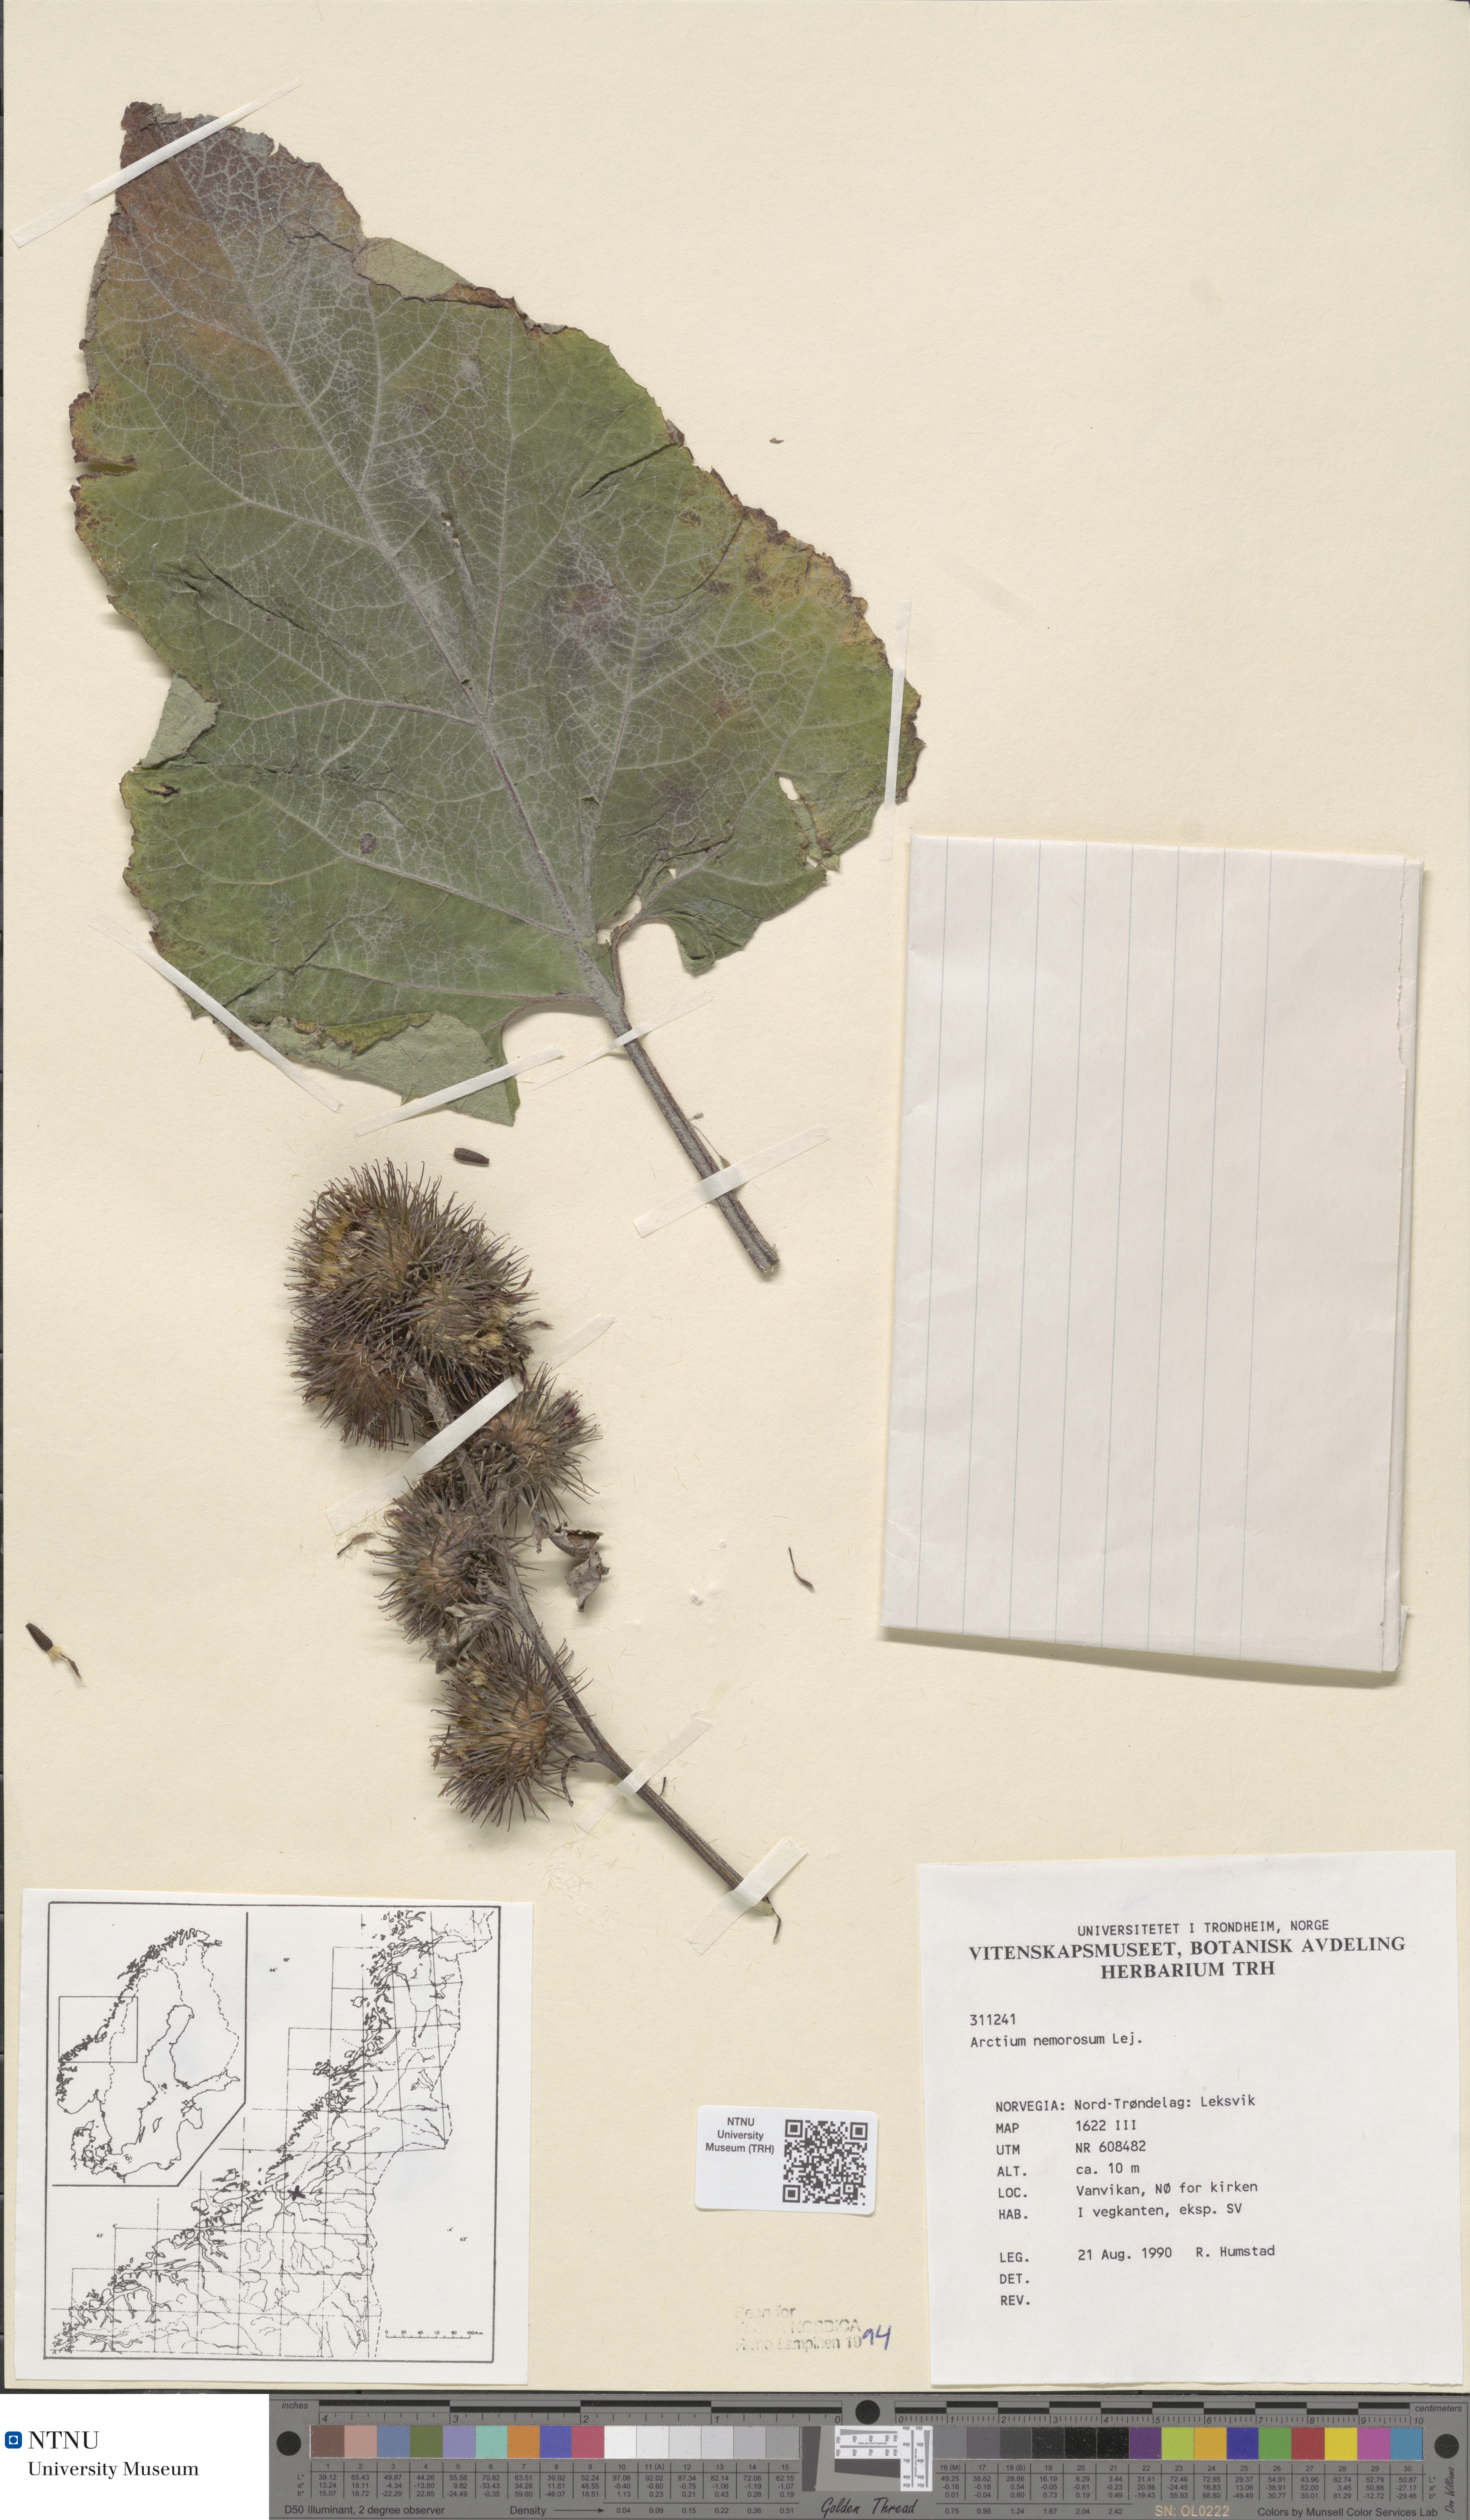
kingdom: Plantae
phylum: Tracheophyta
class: Magnoliopsida
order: Asterales
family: Asteraceae
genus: Arctium
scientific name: Arctium nemorosum
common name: Wood burdock
